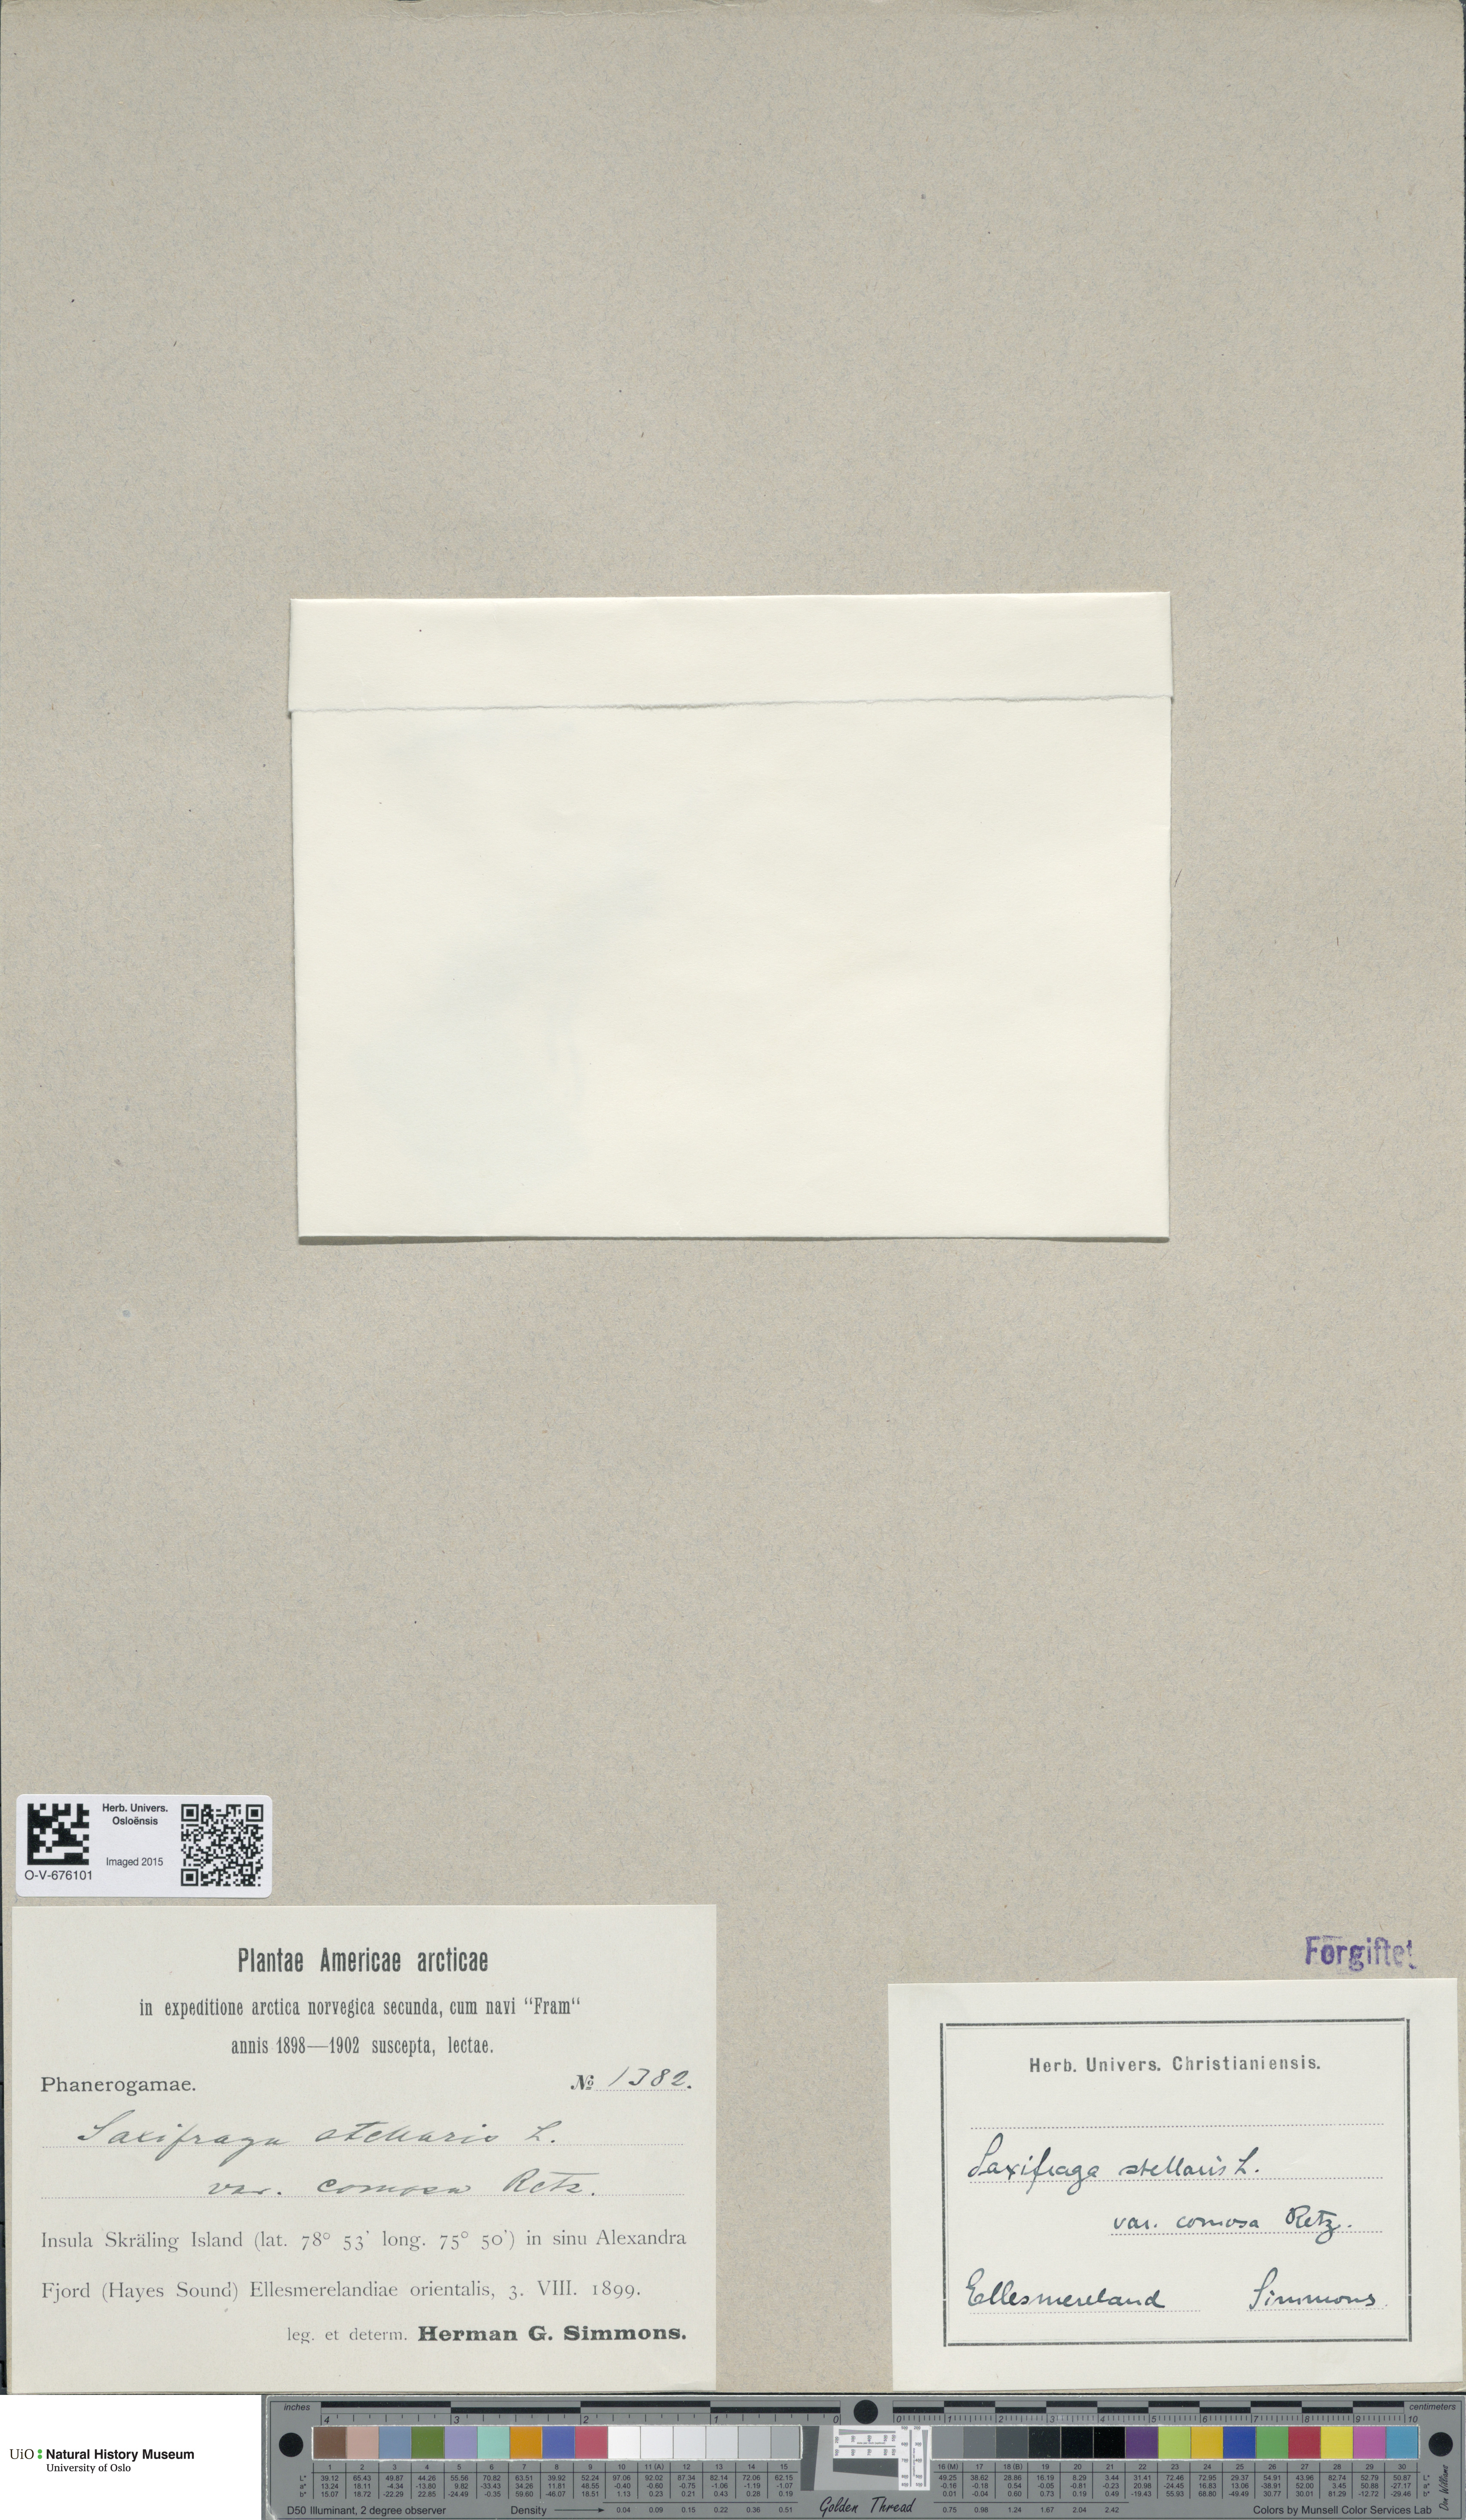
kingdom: Plantae
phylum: Tracheophyta
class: Magnoliopsida
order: Saxifragales
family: Saxifragaceae
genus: Micranthes
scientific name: Micranthes foliolosa
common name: Leafystem saxifrage
